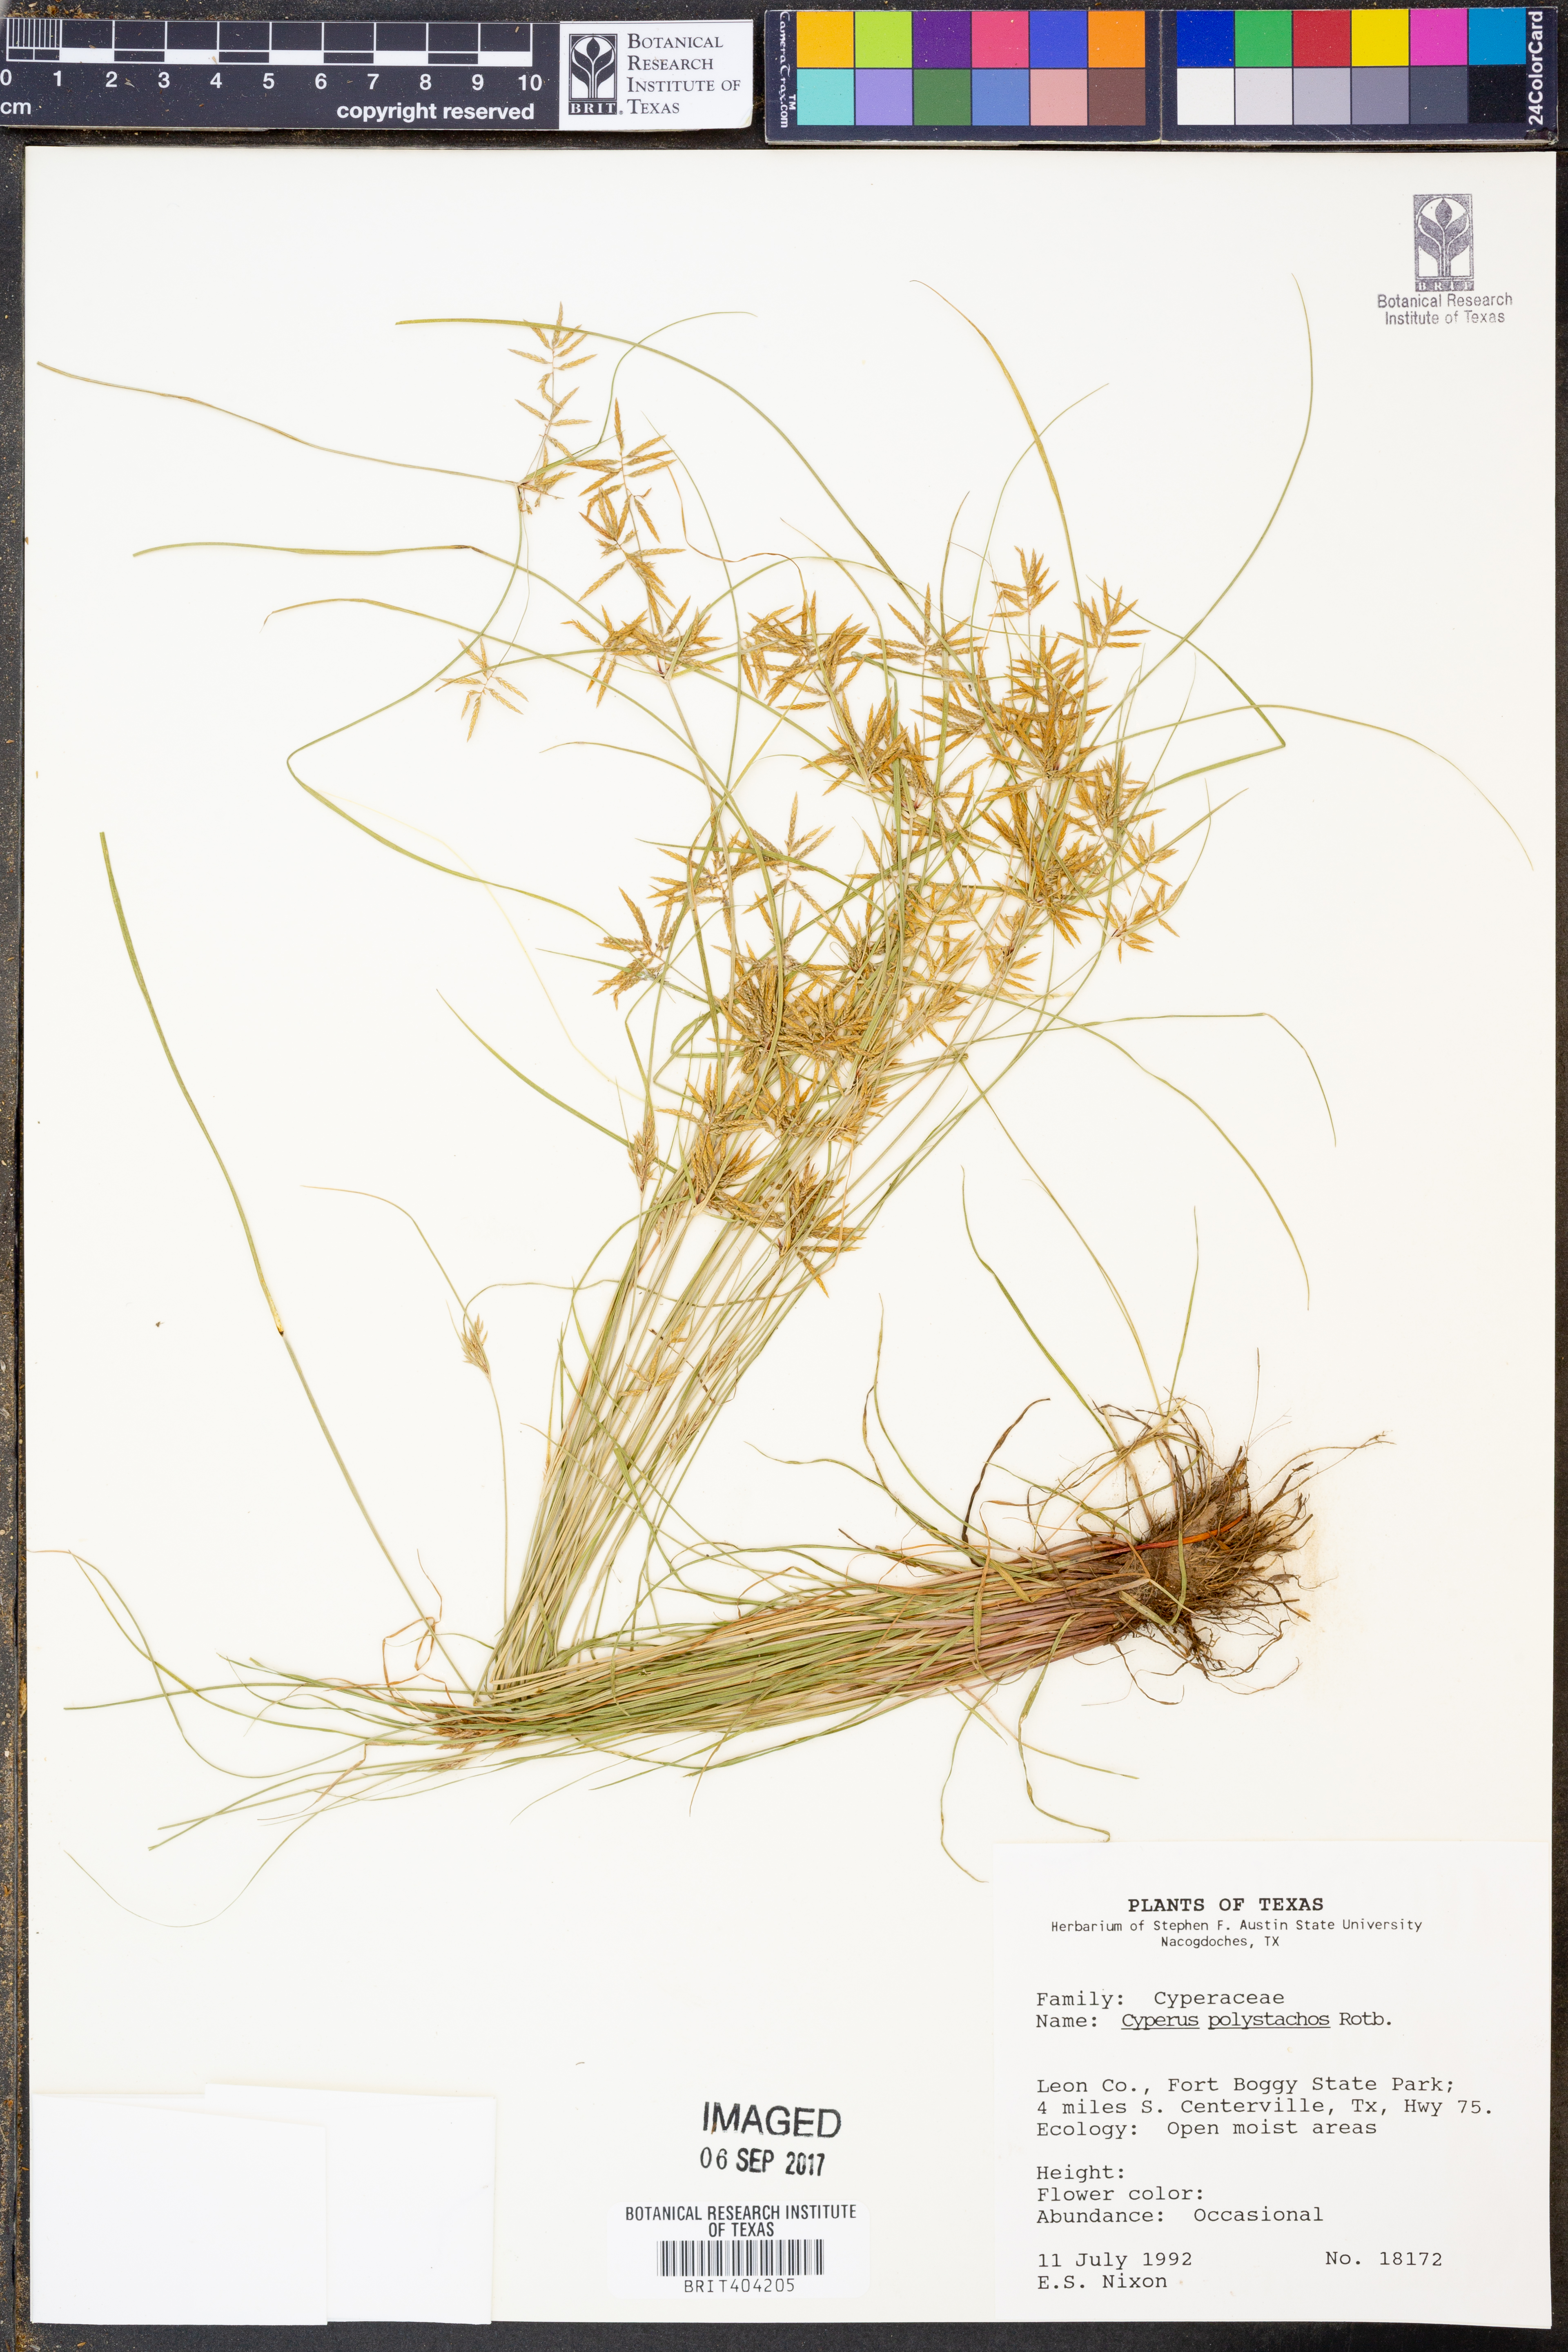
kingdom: Plantae
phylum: Tracheophyta
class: Liliopsida
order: Poales
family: Cyperaceae
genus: Cyperus
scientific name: Cyperus polystachyos
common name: Bunchy flat sedge
